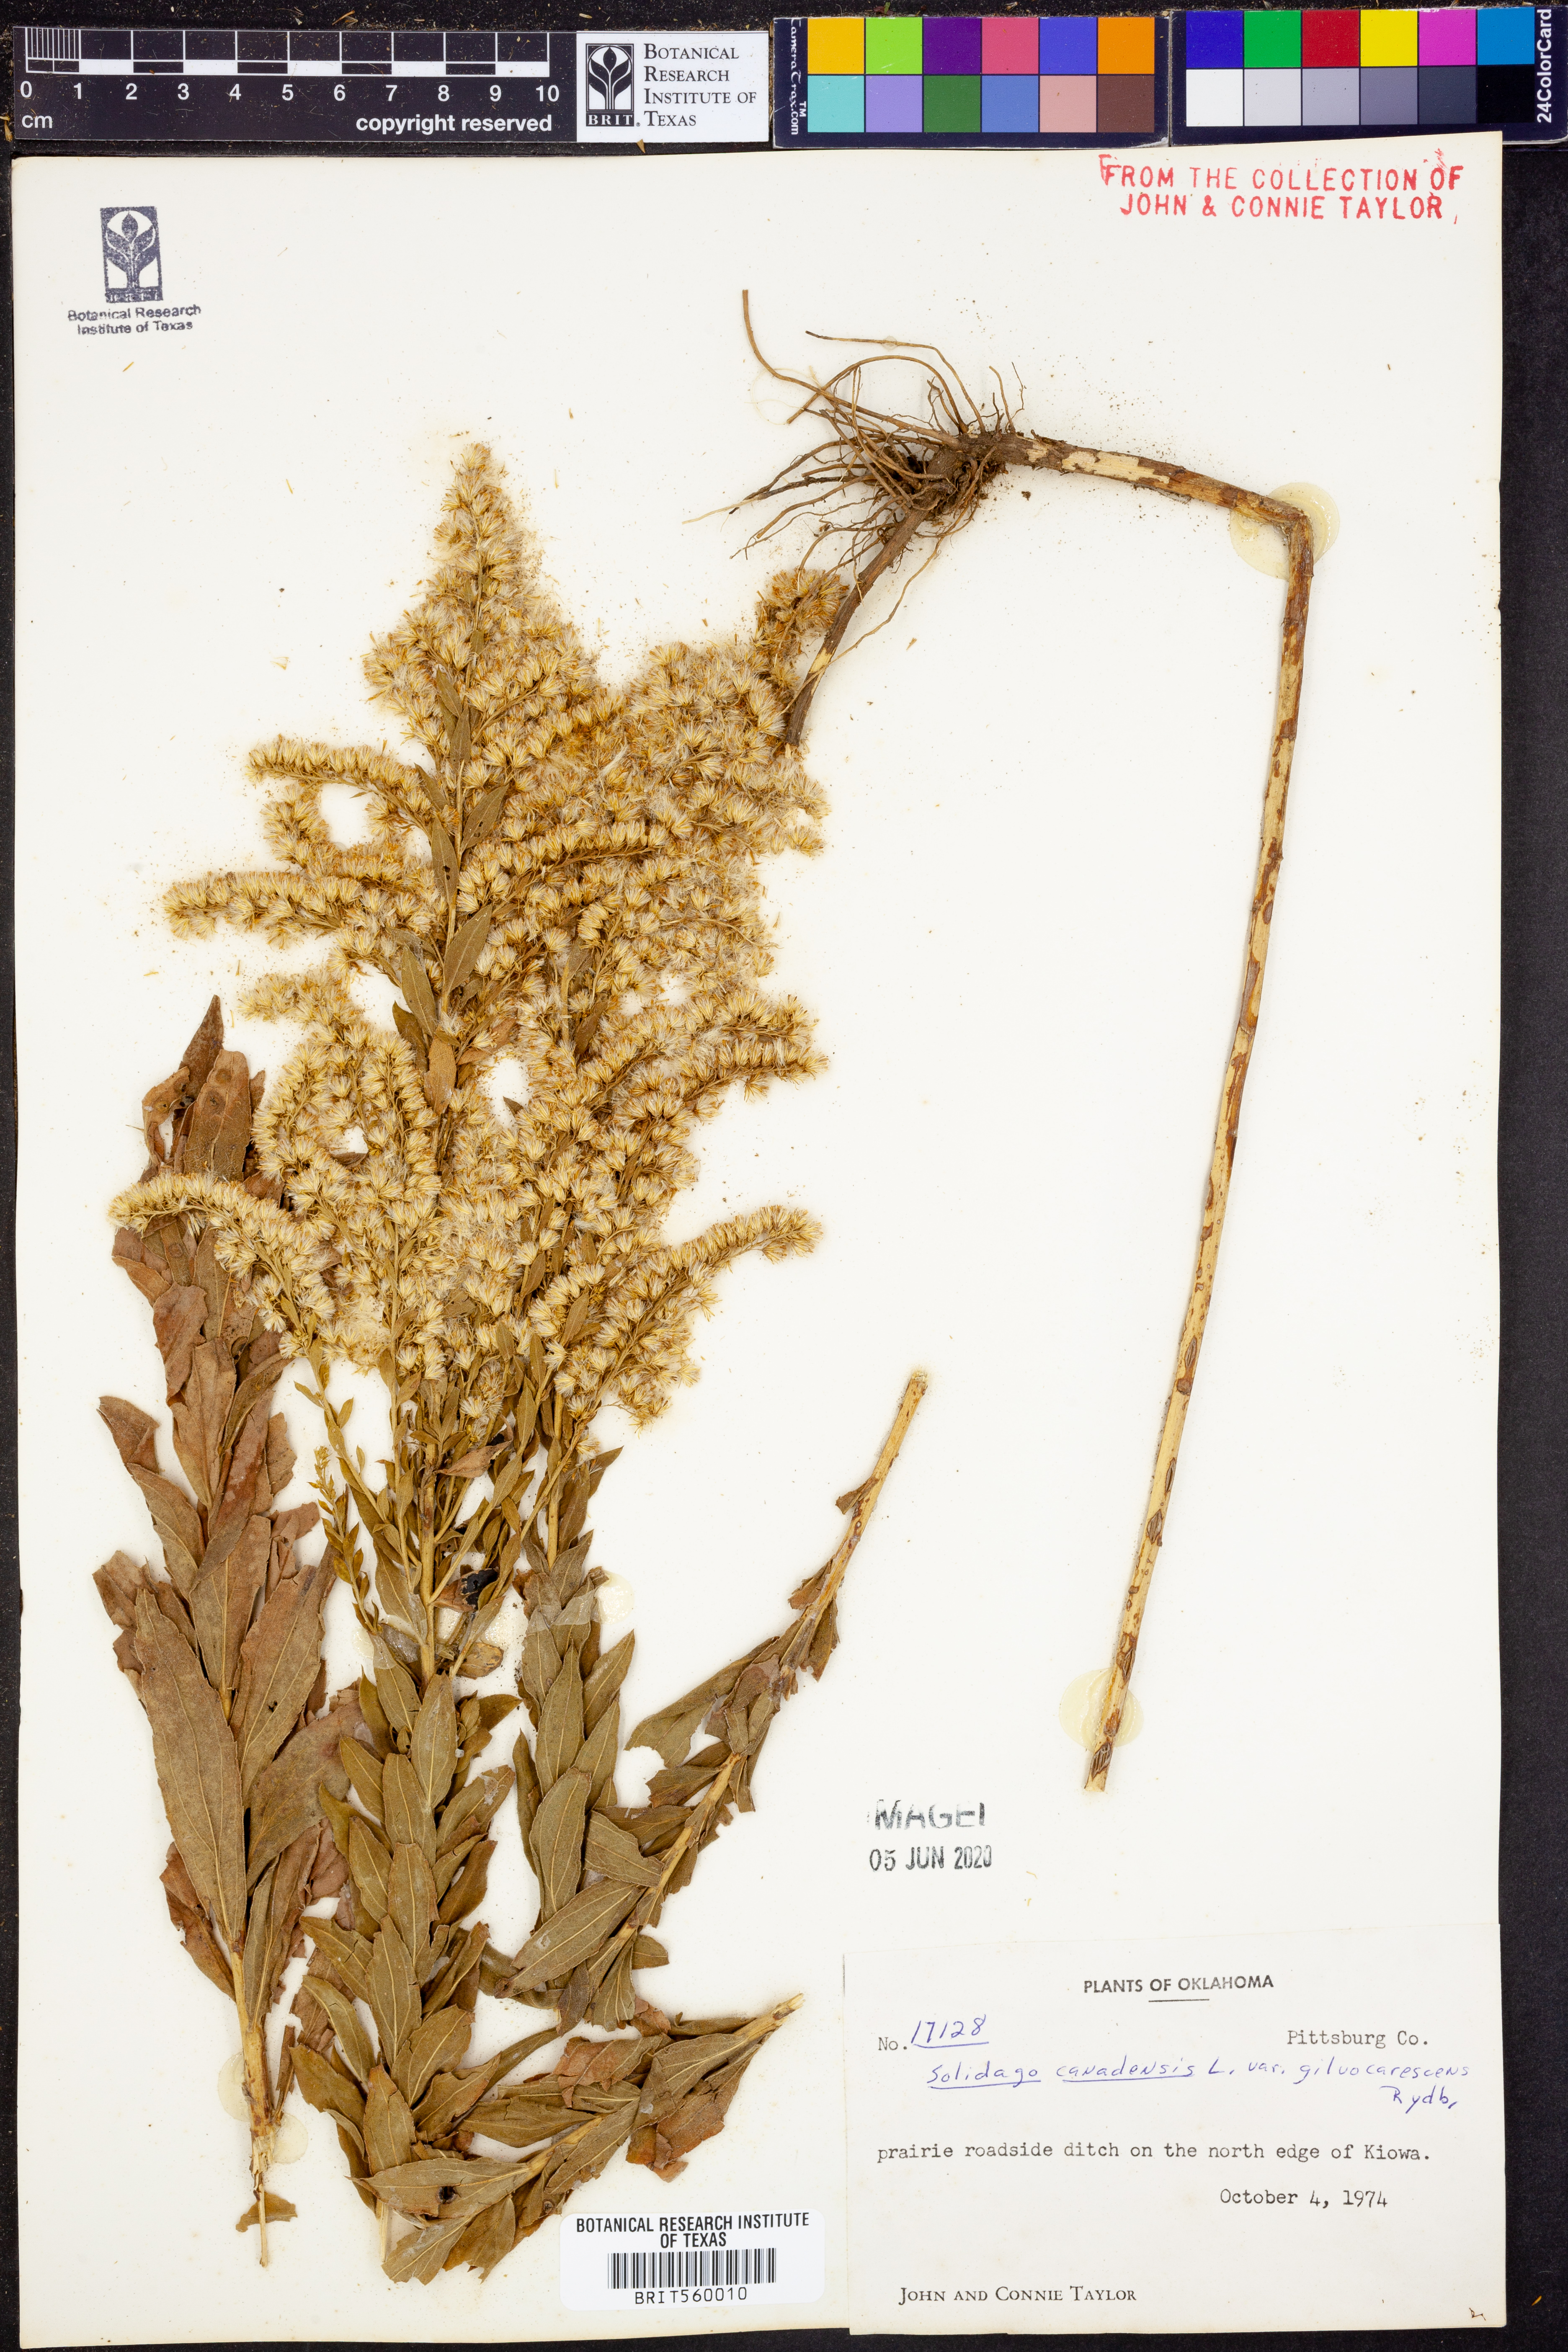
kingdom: Plantae
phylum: Tracheophyta
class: Magnoliopsida
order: Asterales
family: Asteraceae
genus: Solidago
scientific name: Solidago altissima
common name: Late goldenrod
